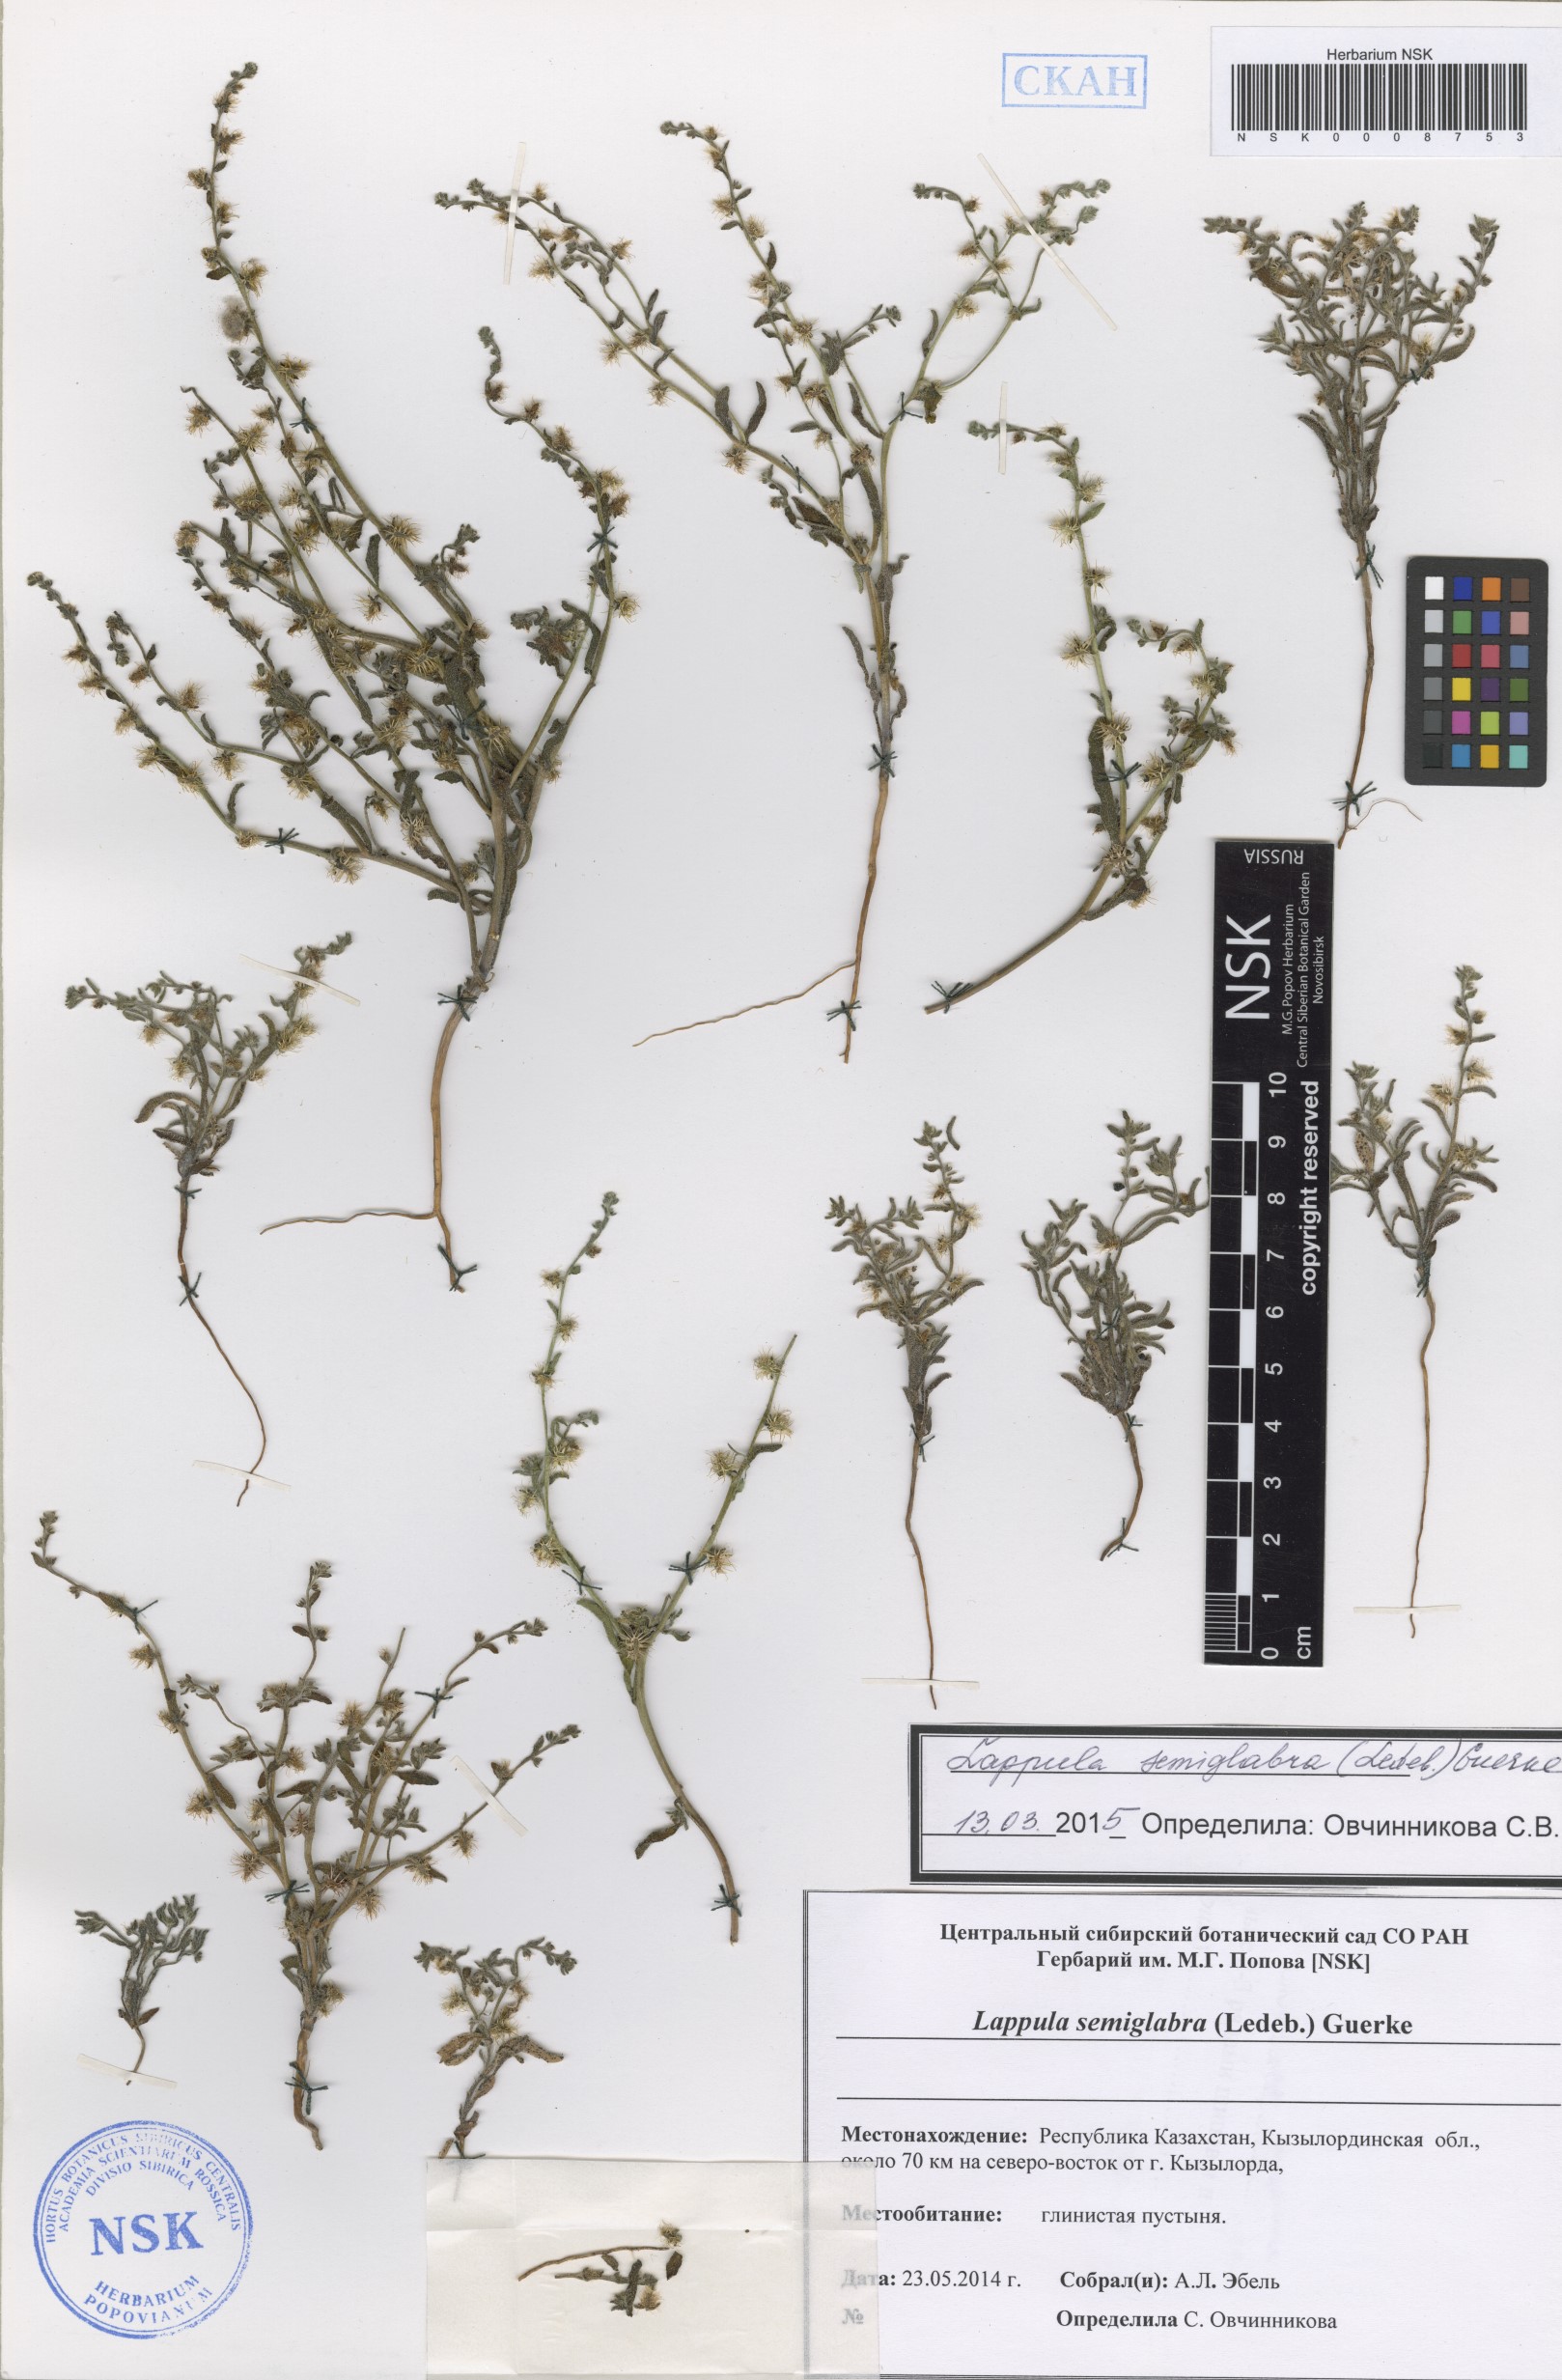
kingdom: Plantae
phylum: Tracheophyta
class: Magnoliopsida
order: Boraginales
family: Boraginaceae
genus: Lappula
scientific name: Lappula patula
